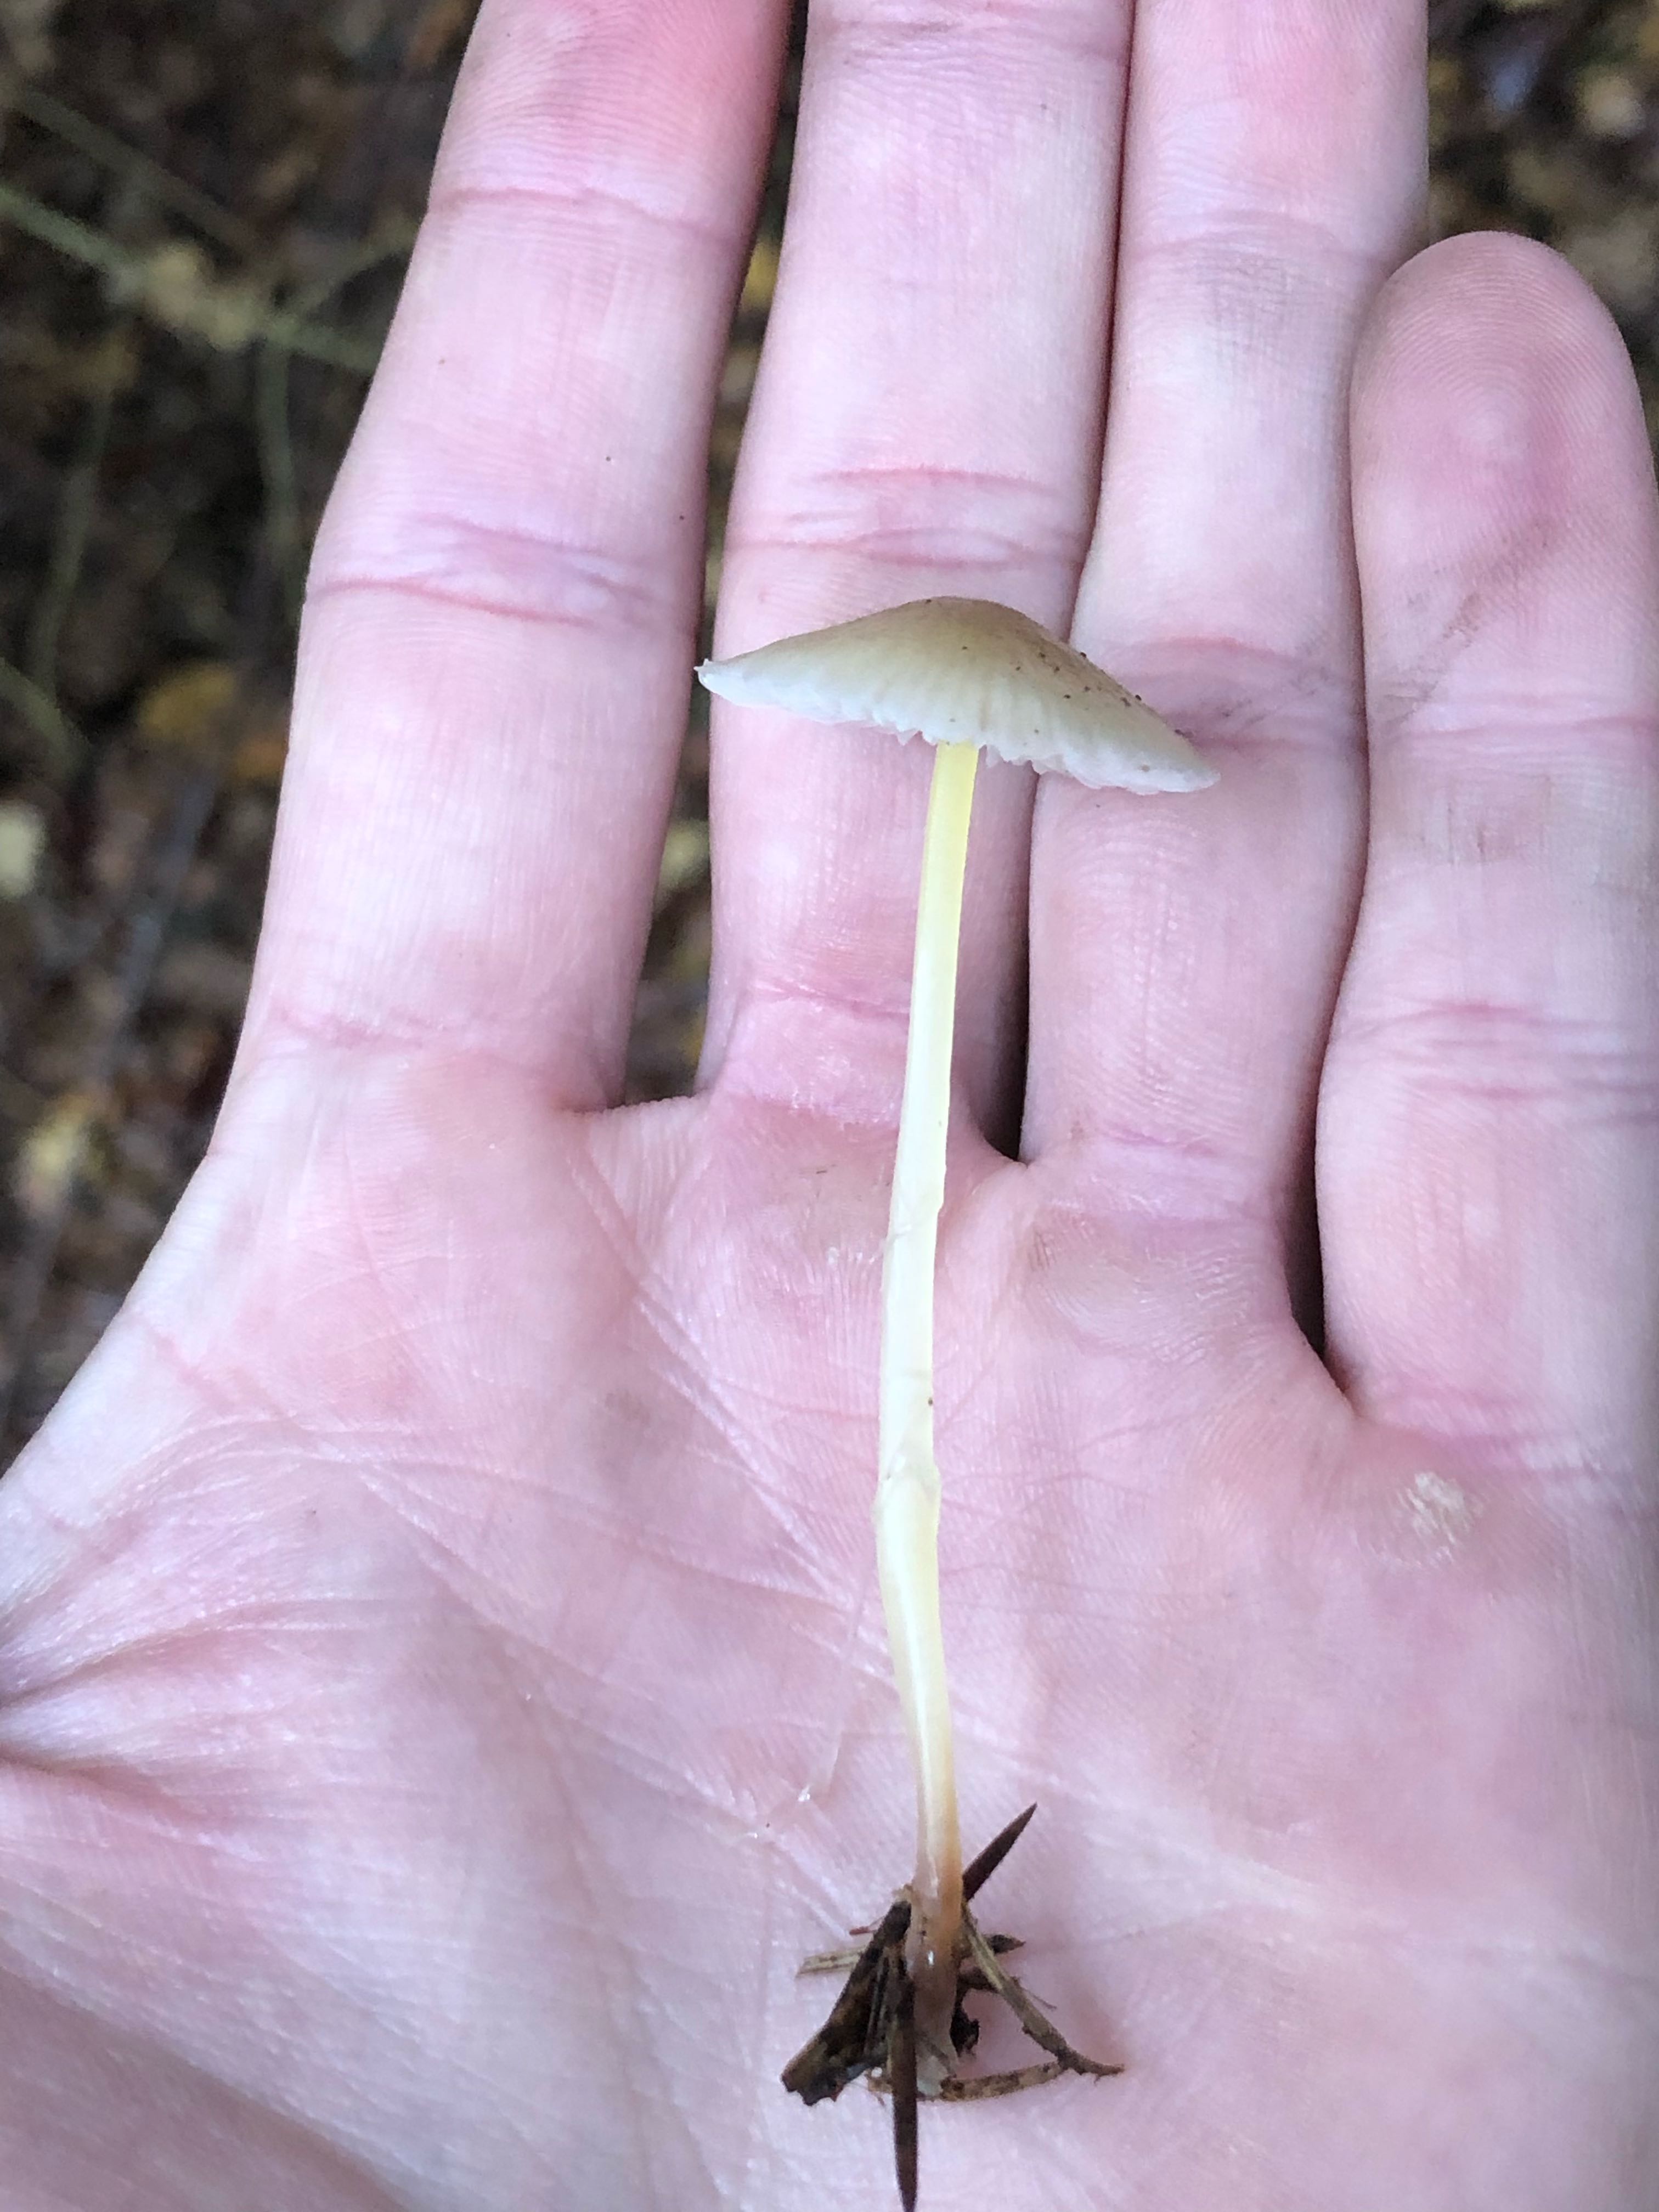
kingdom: Fungi
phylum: Basidiomycota
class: Agaricomycetes
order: Agaricales
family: Mycenaceae
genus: Mycena
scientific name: Mycena epipterygia
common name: gulstokket huesvamp
